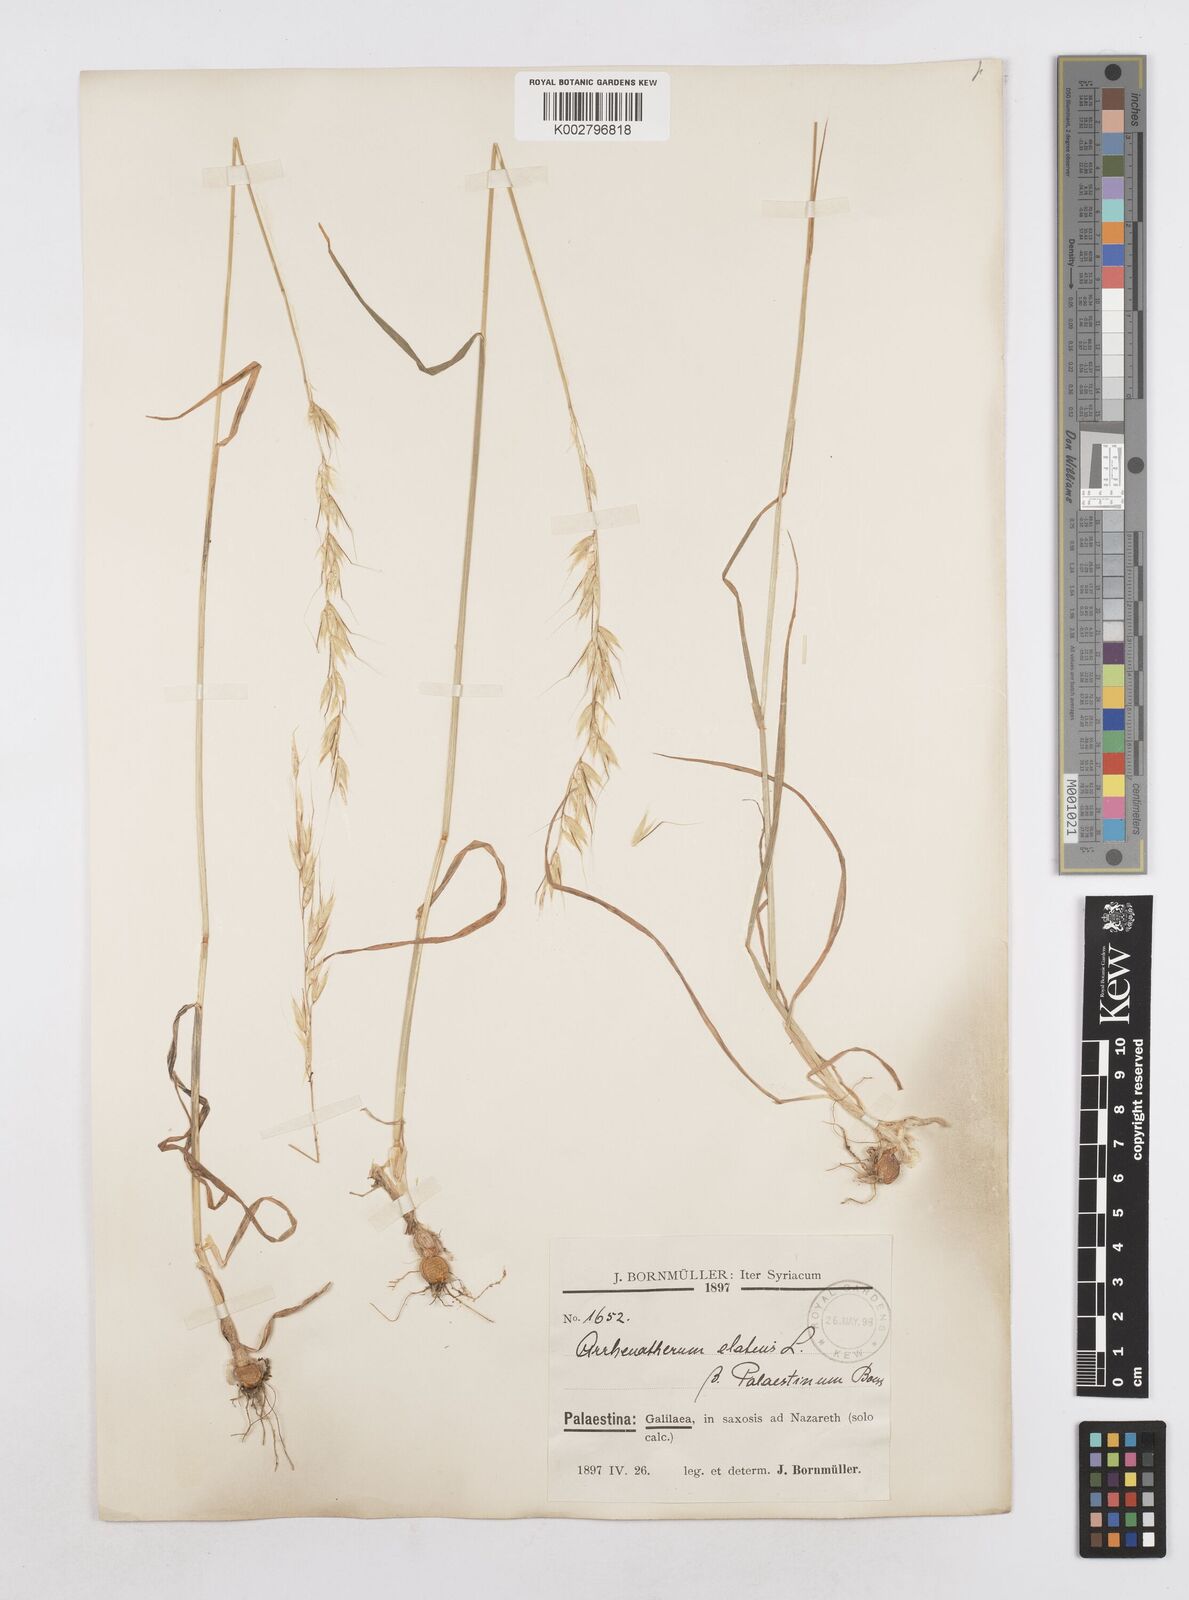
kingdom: Plantae
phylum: Tracheophyta
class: Liliopsida
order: Poales
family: Poaceae
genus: Arrhenatherum
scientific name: Arrhenatherum palaestinum
